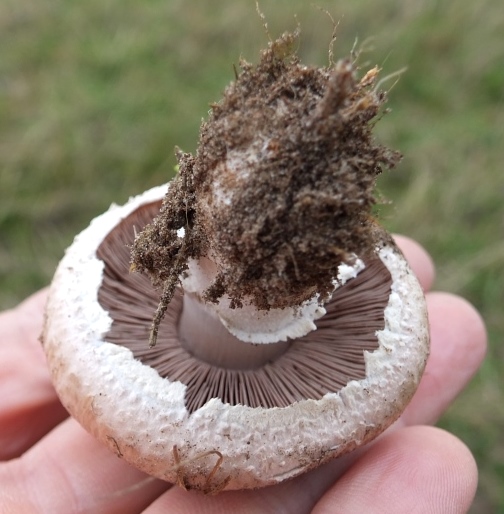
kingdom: Fungi
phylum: Basidiomycota
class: Agaricomycetes
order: Agaricales
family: Agaricaceae
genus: Agaricus
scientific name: Agaricus campestris
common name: mark-champignon
